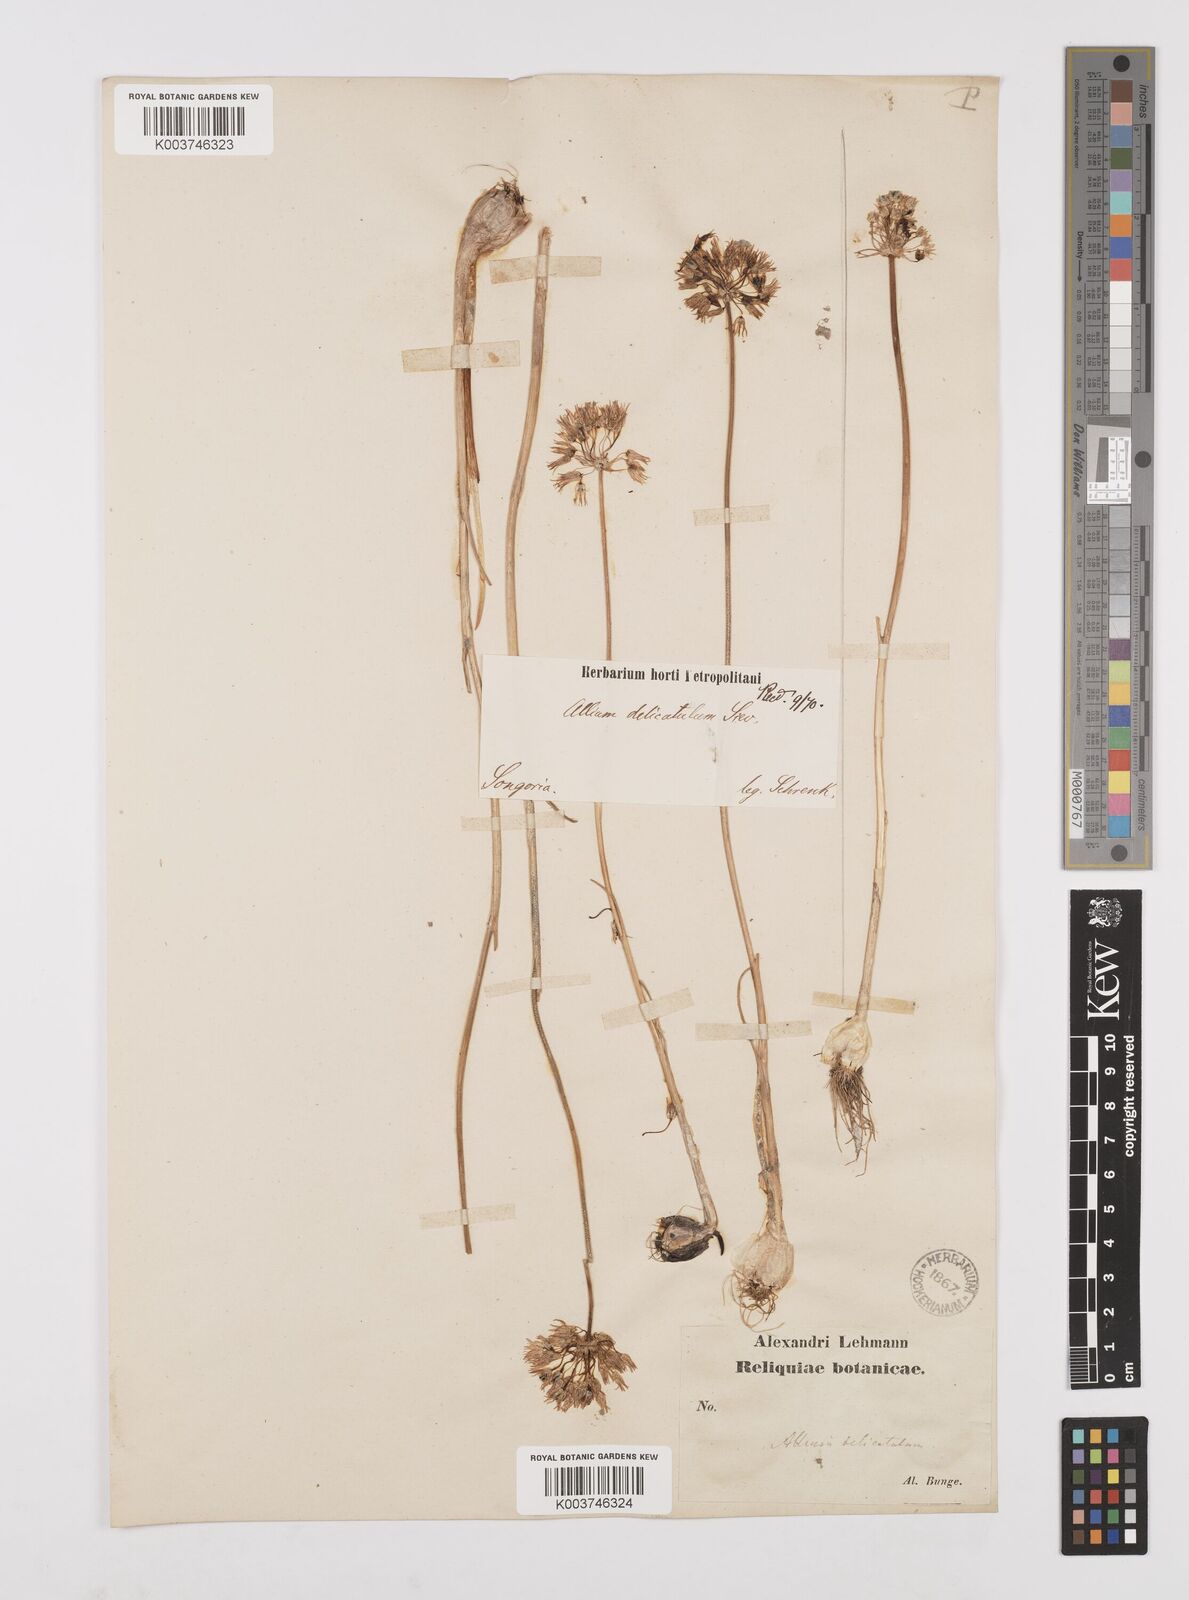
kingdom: Plantae
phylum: Tracheophyta
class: Liliopsida
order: Asparagales
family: Amaryllidaceae
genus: Allium
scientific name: Allium delicatulum
